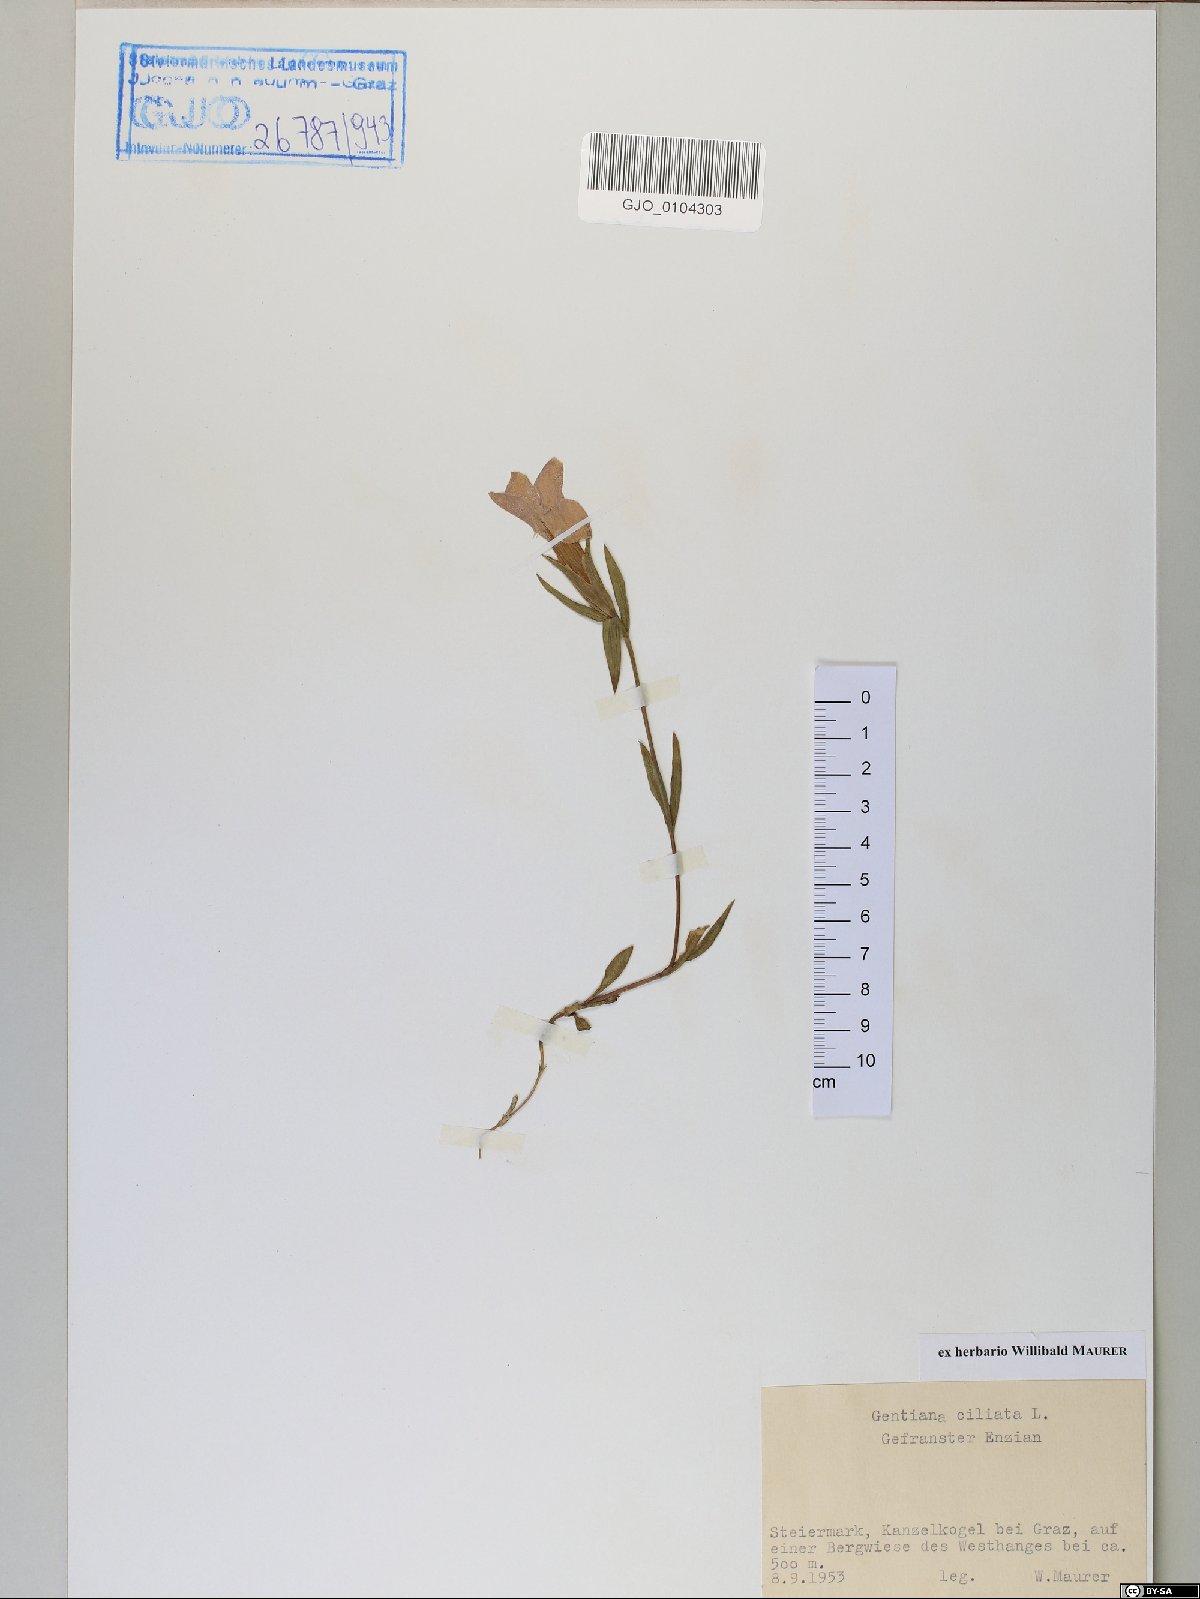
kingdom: Plantae
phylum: Tracheophyta
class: Magnoliopsida
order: Gentianales
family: Gentianaceae
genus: Gentianopsis
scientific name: Gentianopsis ciliata
